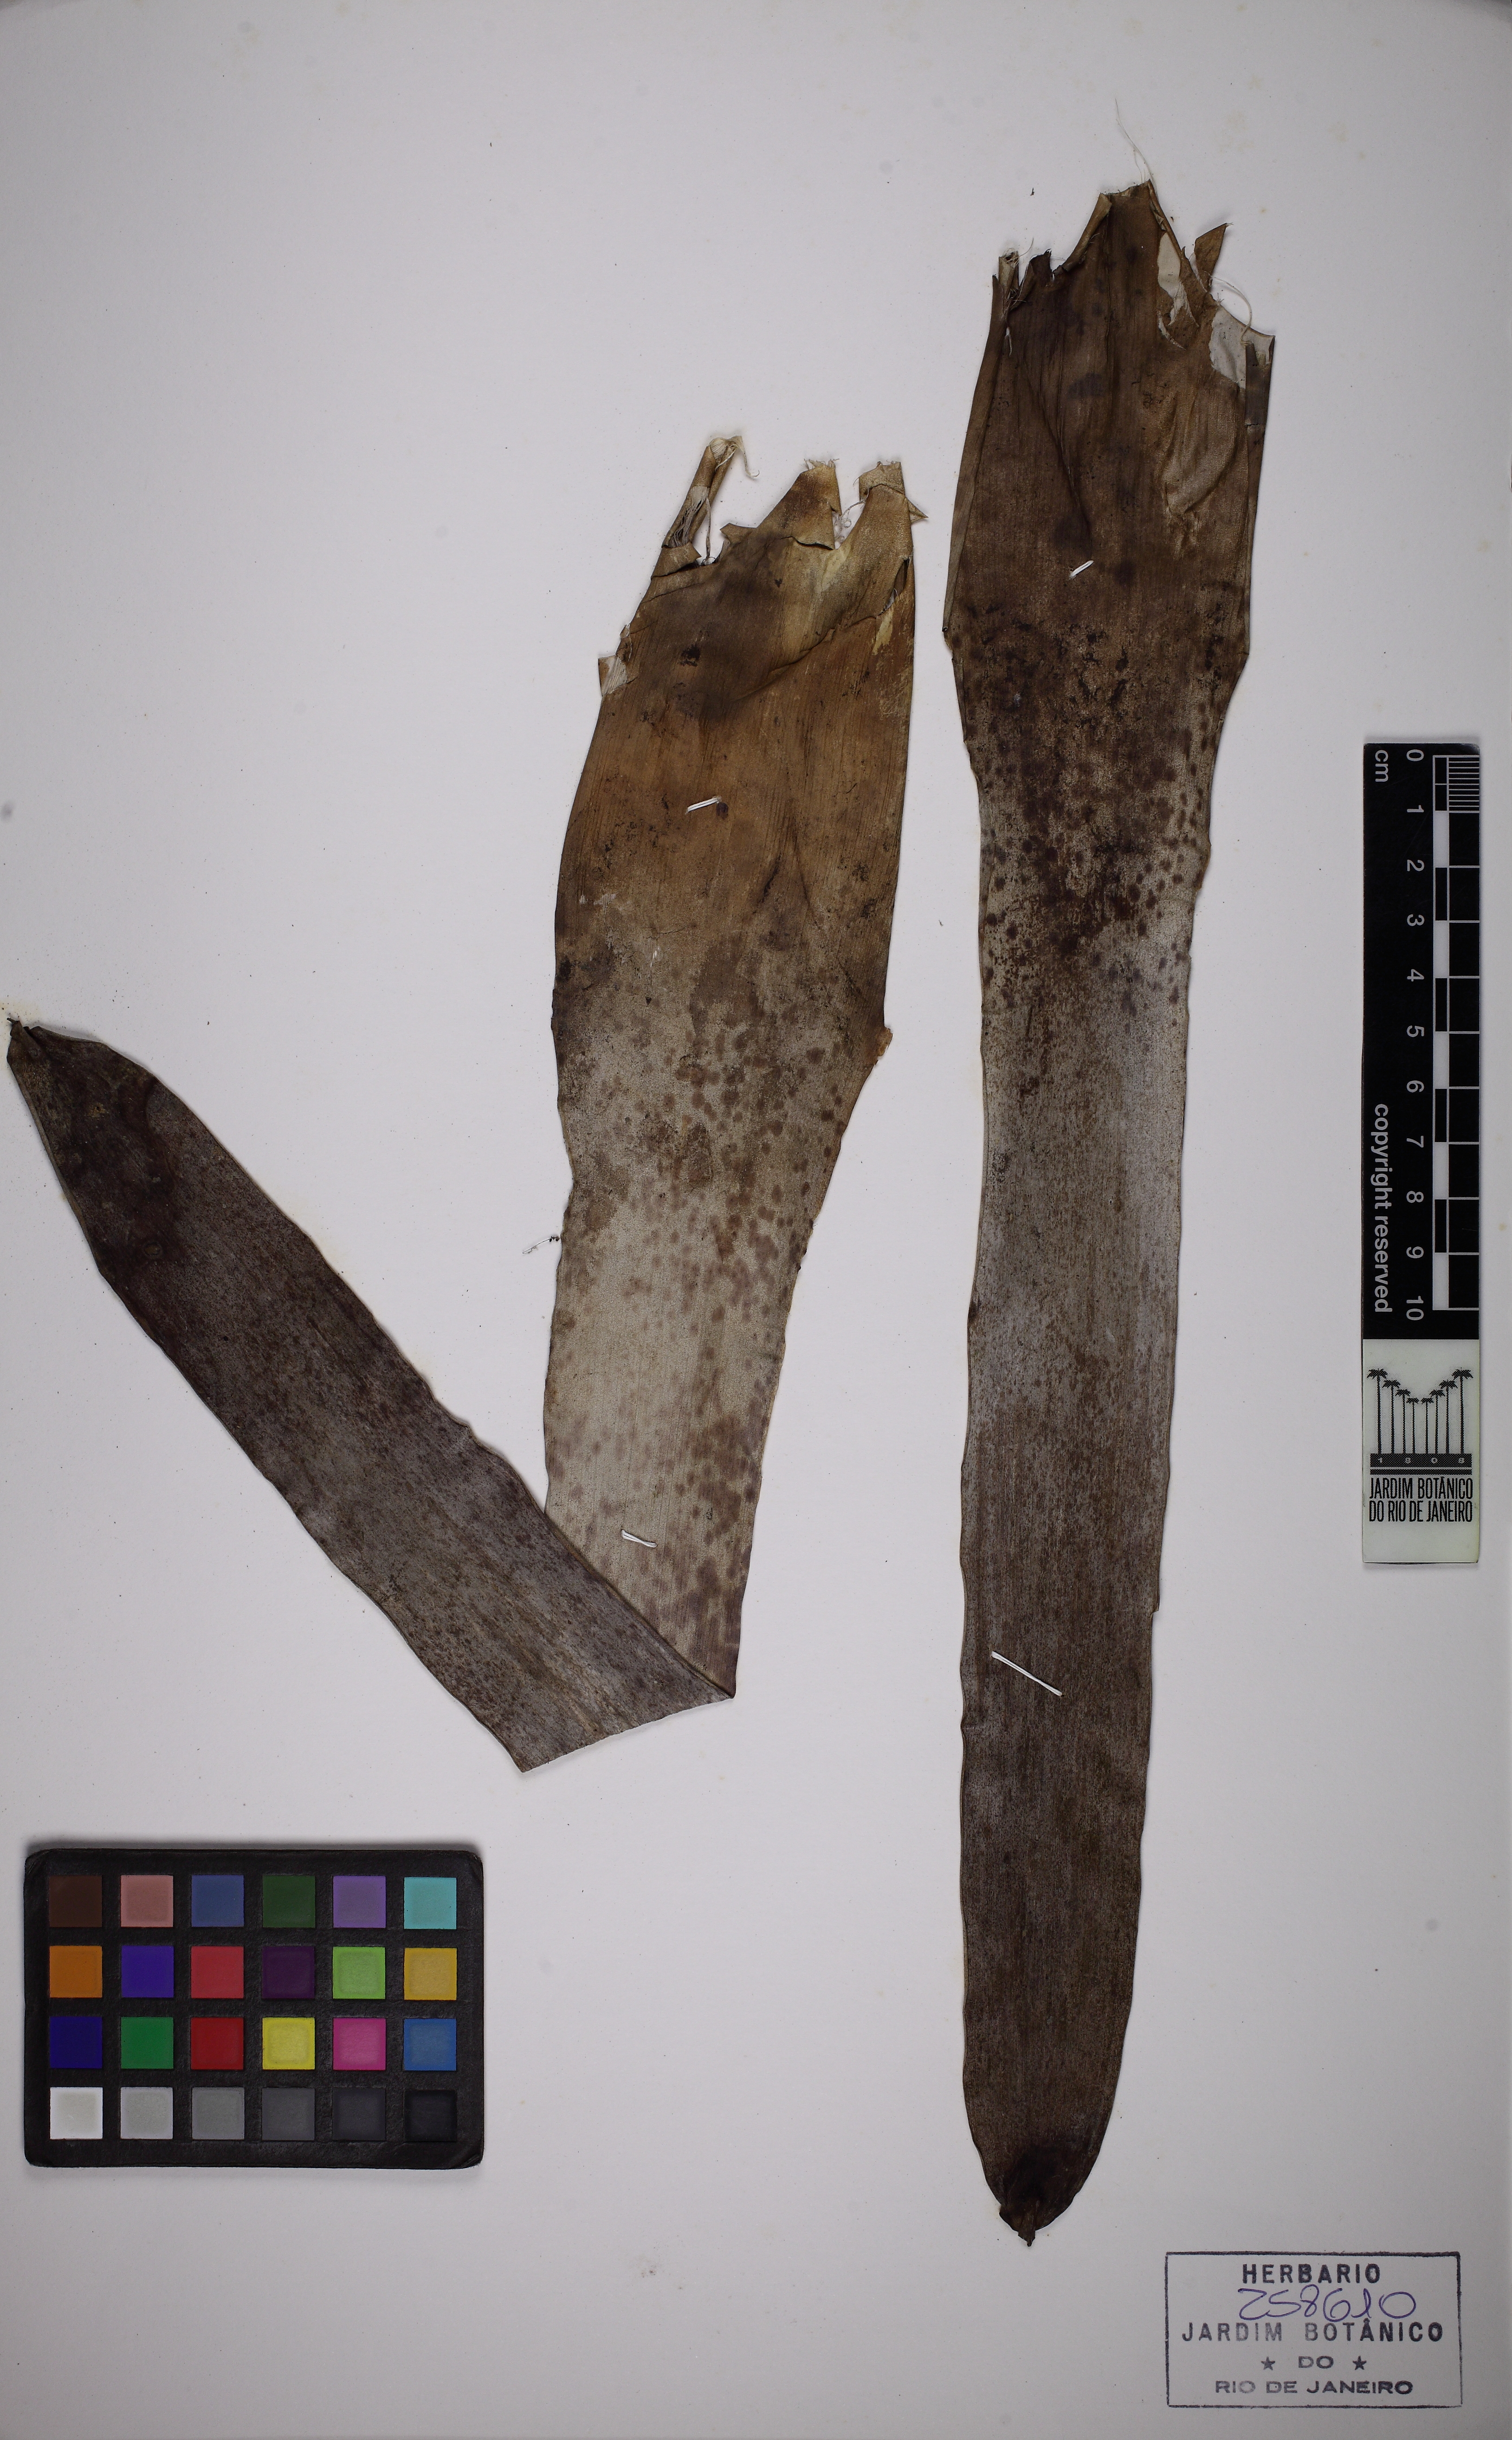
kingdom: Plantae
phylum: Tracheophyta
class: Liliopsida
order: Poales
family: Bromeliaceae
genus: Vriesea
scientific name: Vriesea pardalina
